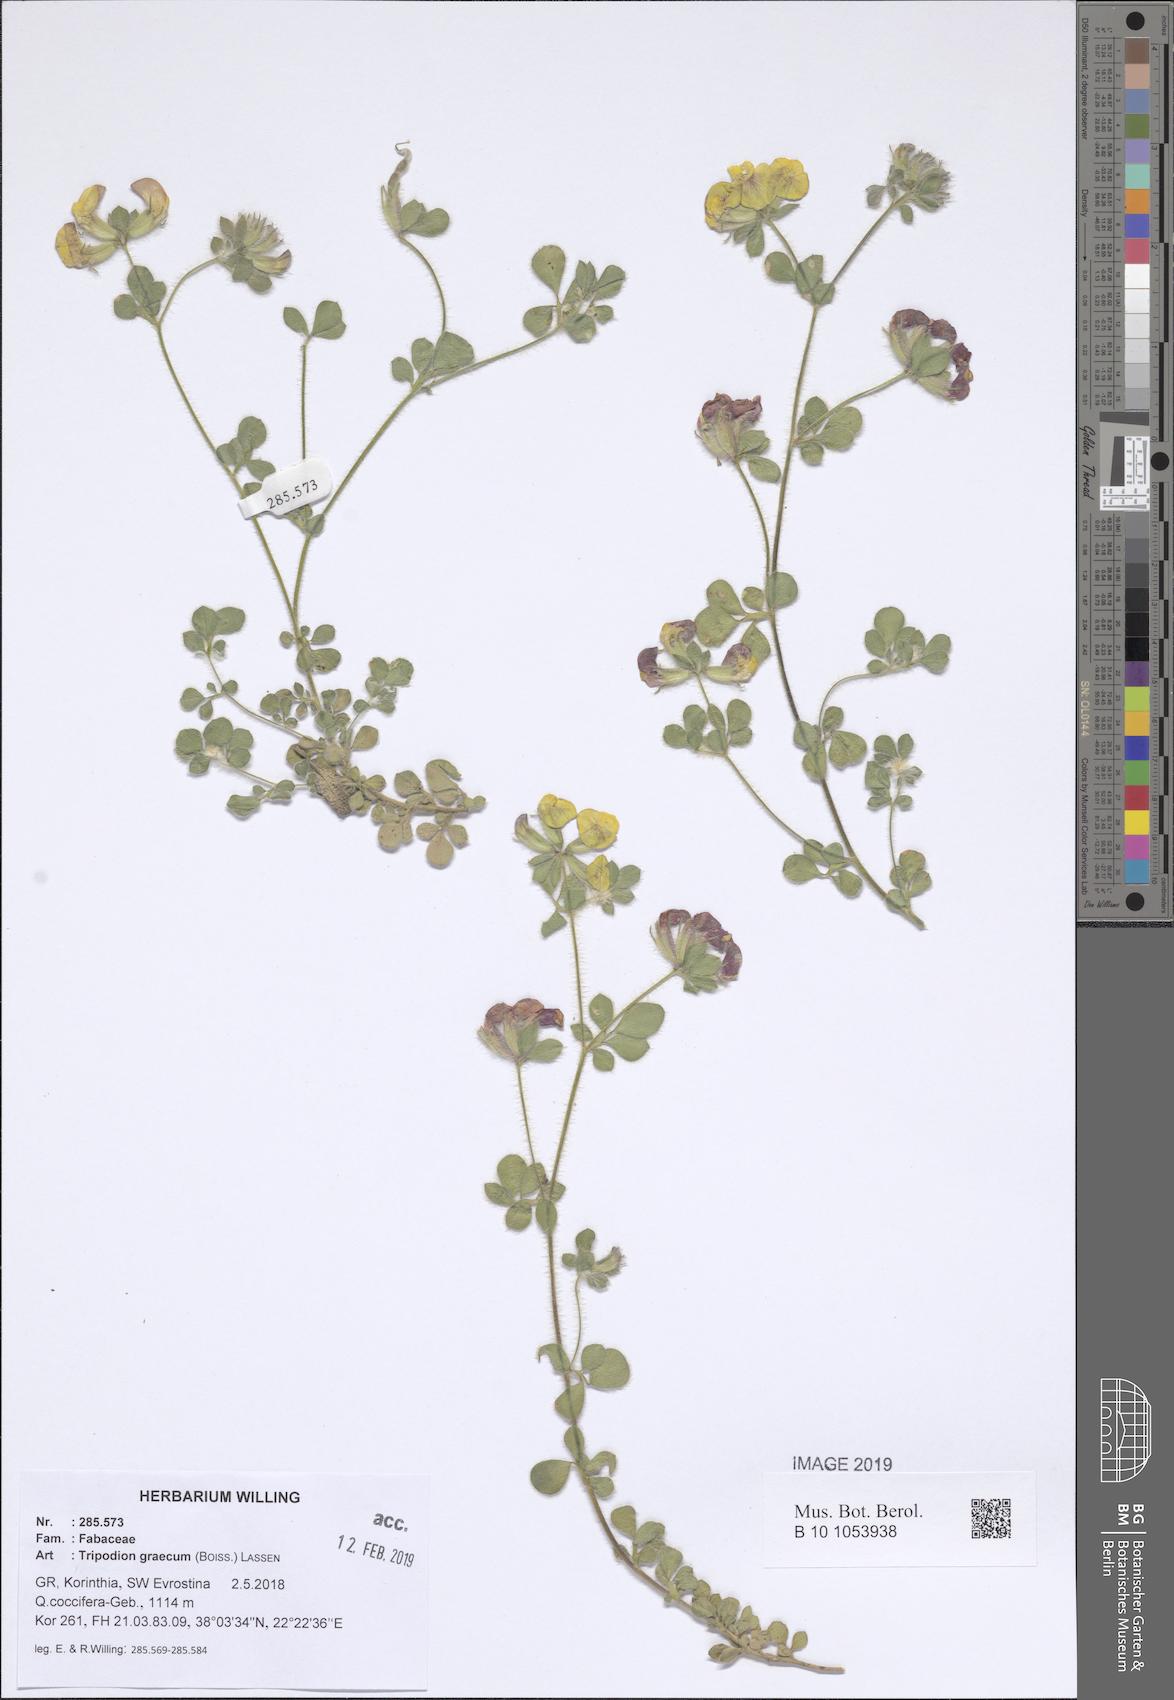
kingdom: Plantae
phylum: Tracheophyta
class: Magnoliopsida
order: Fabales
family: Fabaceae
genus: Hammatolobium
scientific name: Hammatolobium lotoides
